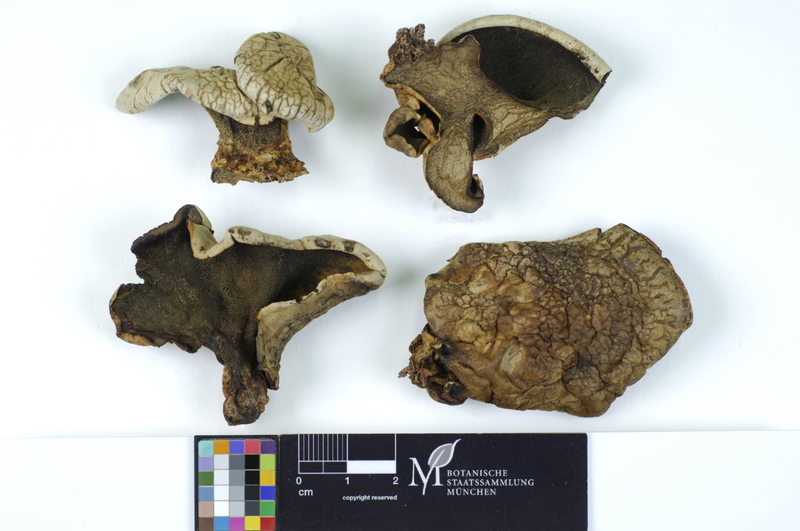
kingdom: Fungi
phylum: Basidiomycota
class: Agaricomycetes
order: Russulales
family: Albatrellaceae
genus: Albatrellus
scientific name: Albatrellus subrubescens
